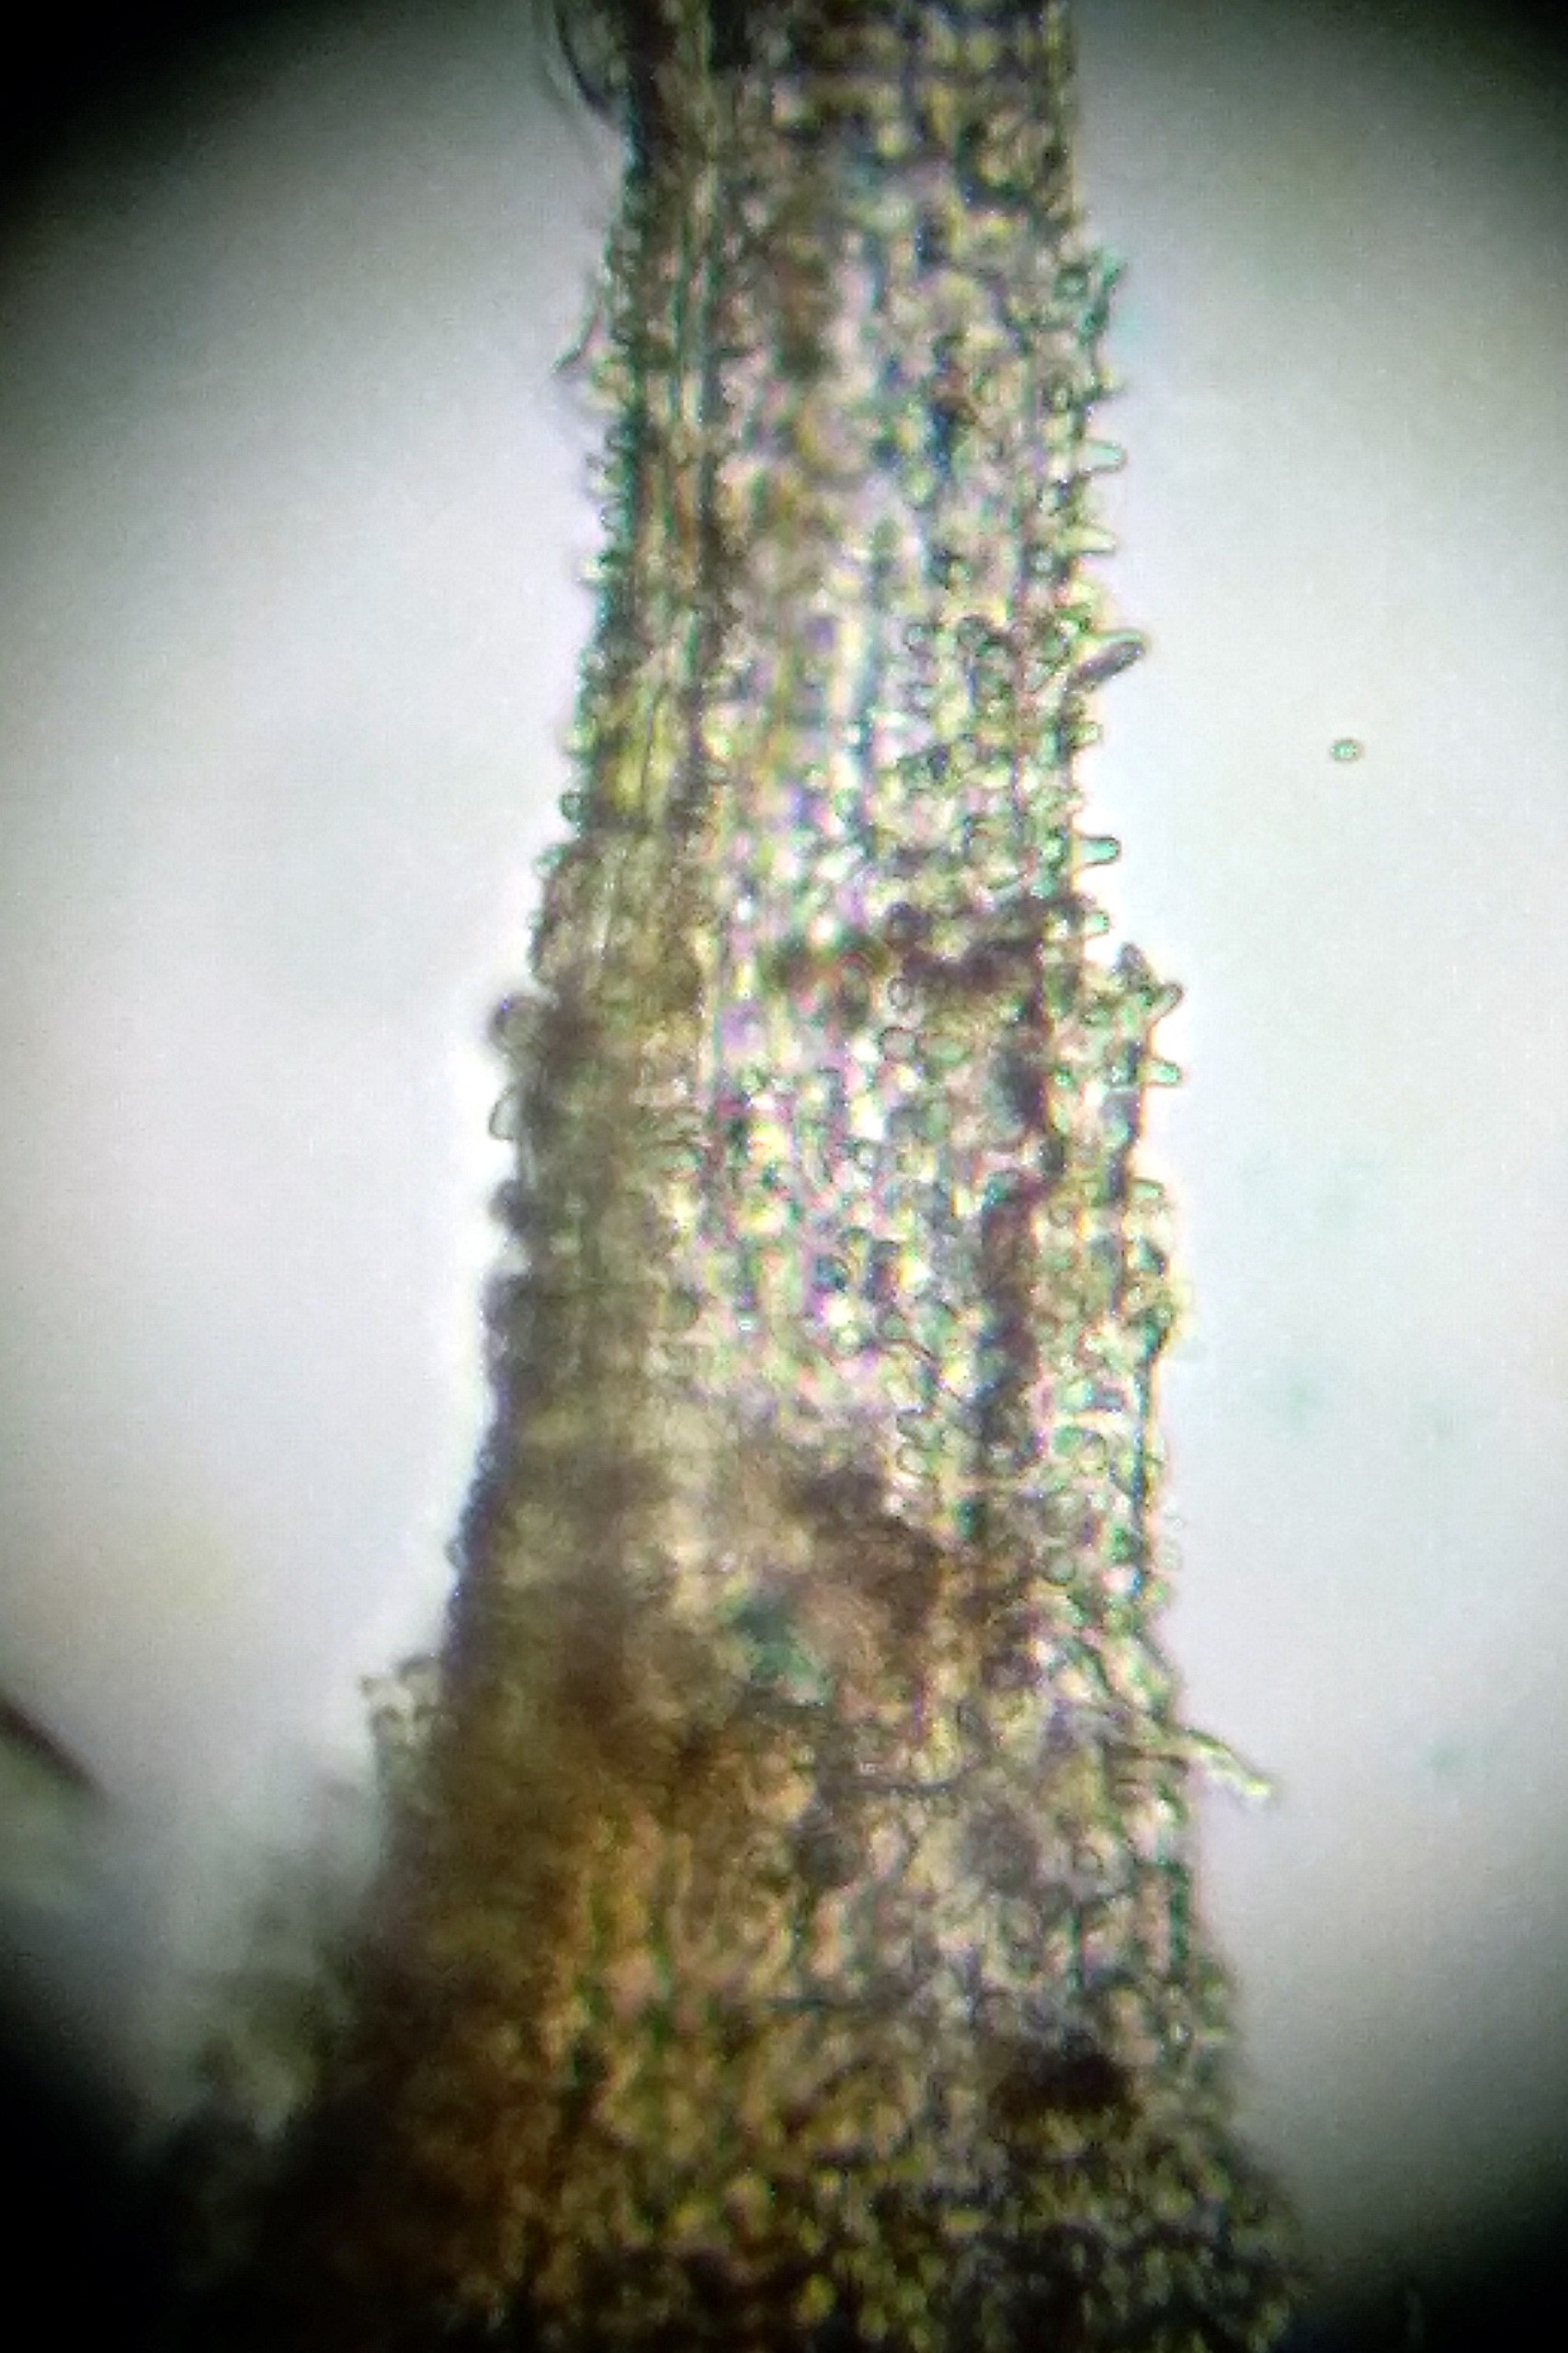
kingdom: Plantae
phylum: Bryophyta
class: Bryopsida
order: Grimmiales
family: Grimmiaceae
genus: Niphotrichum
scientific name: Niphotrichum canescens
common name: Sand-børstemos
